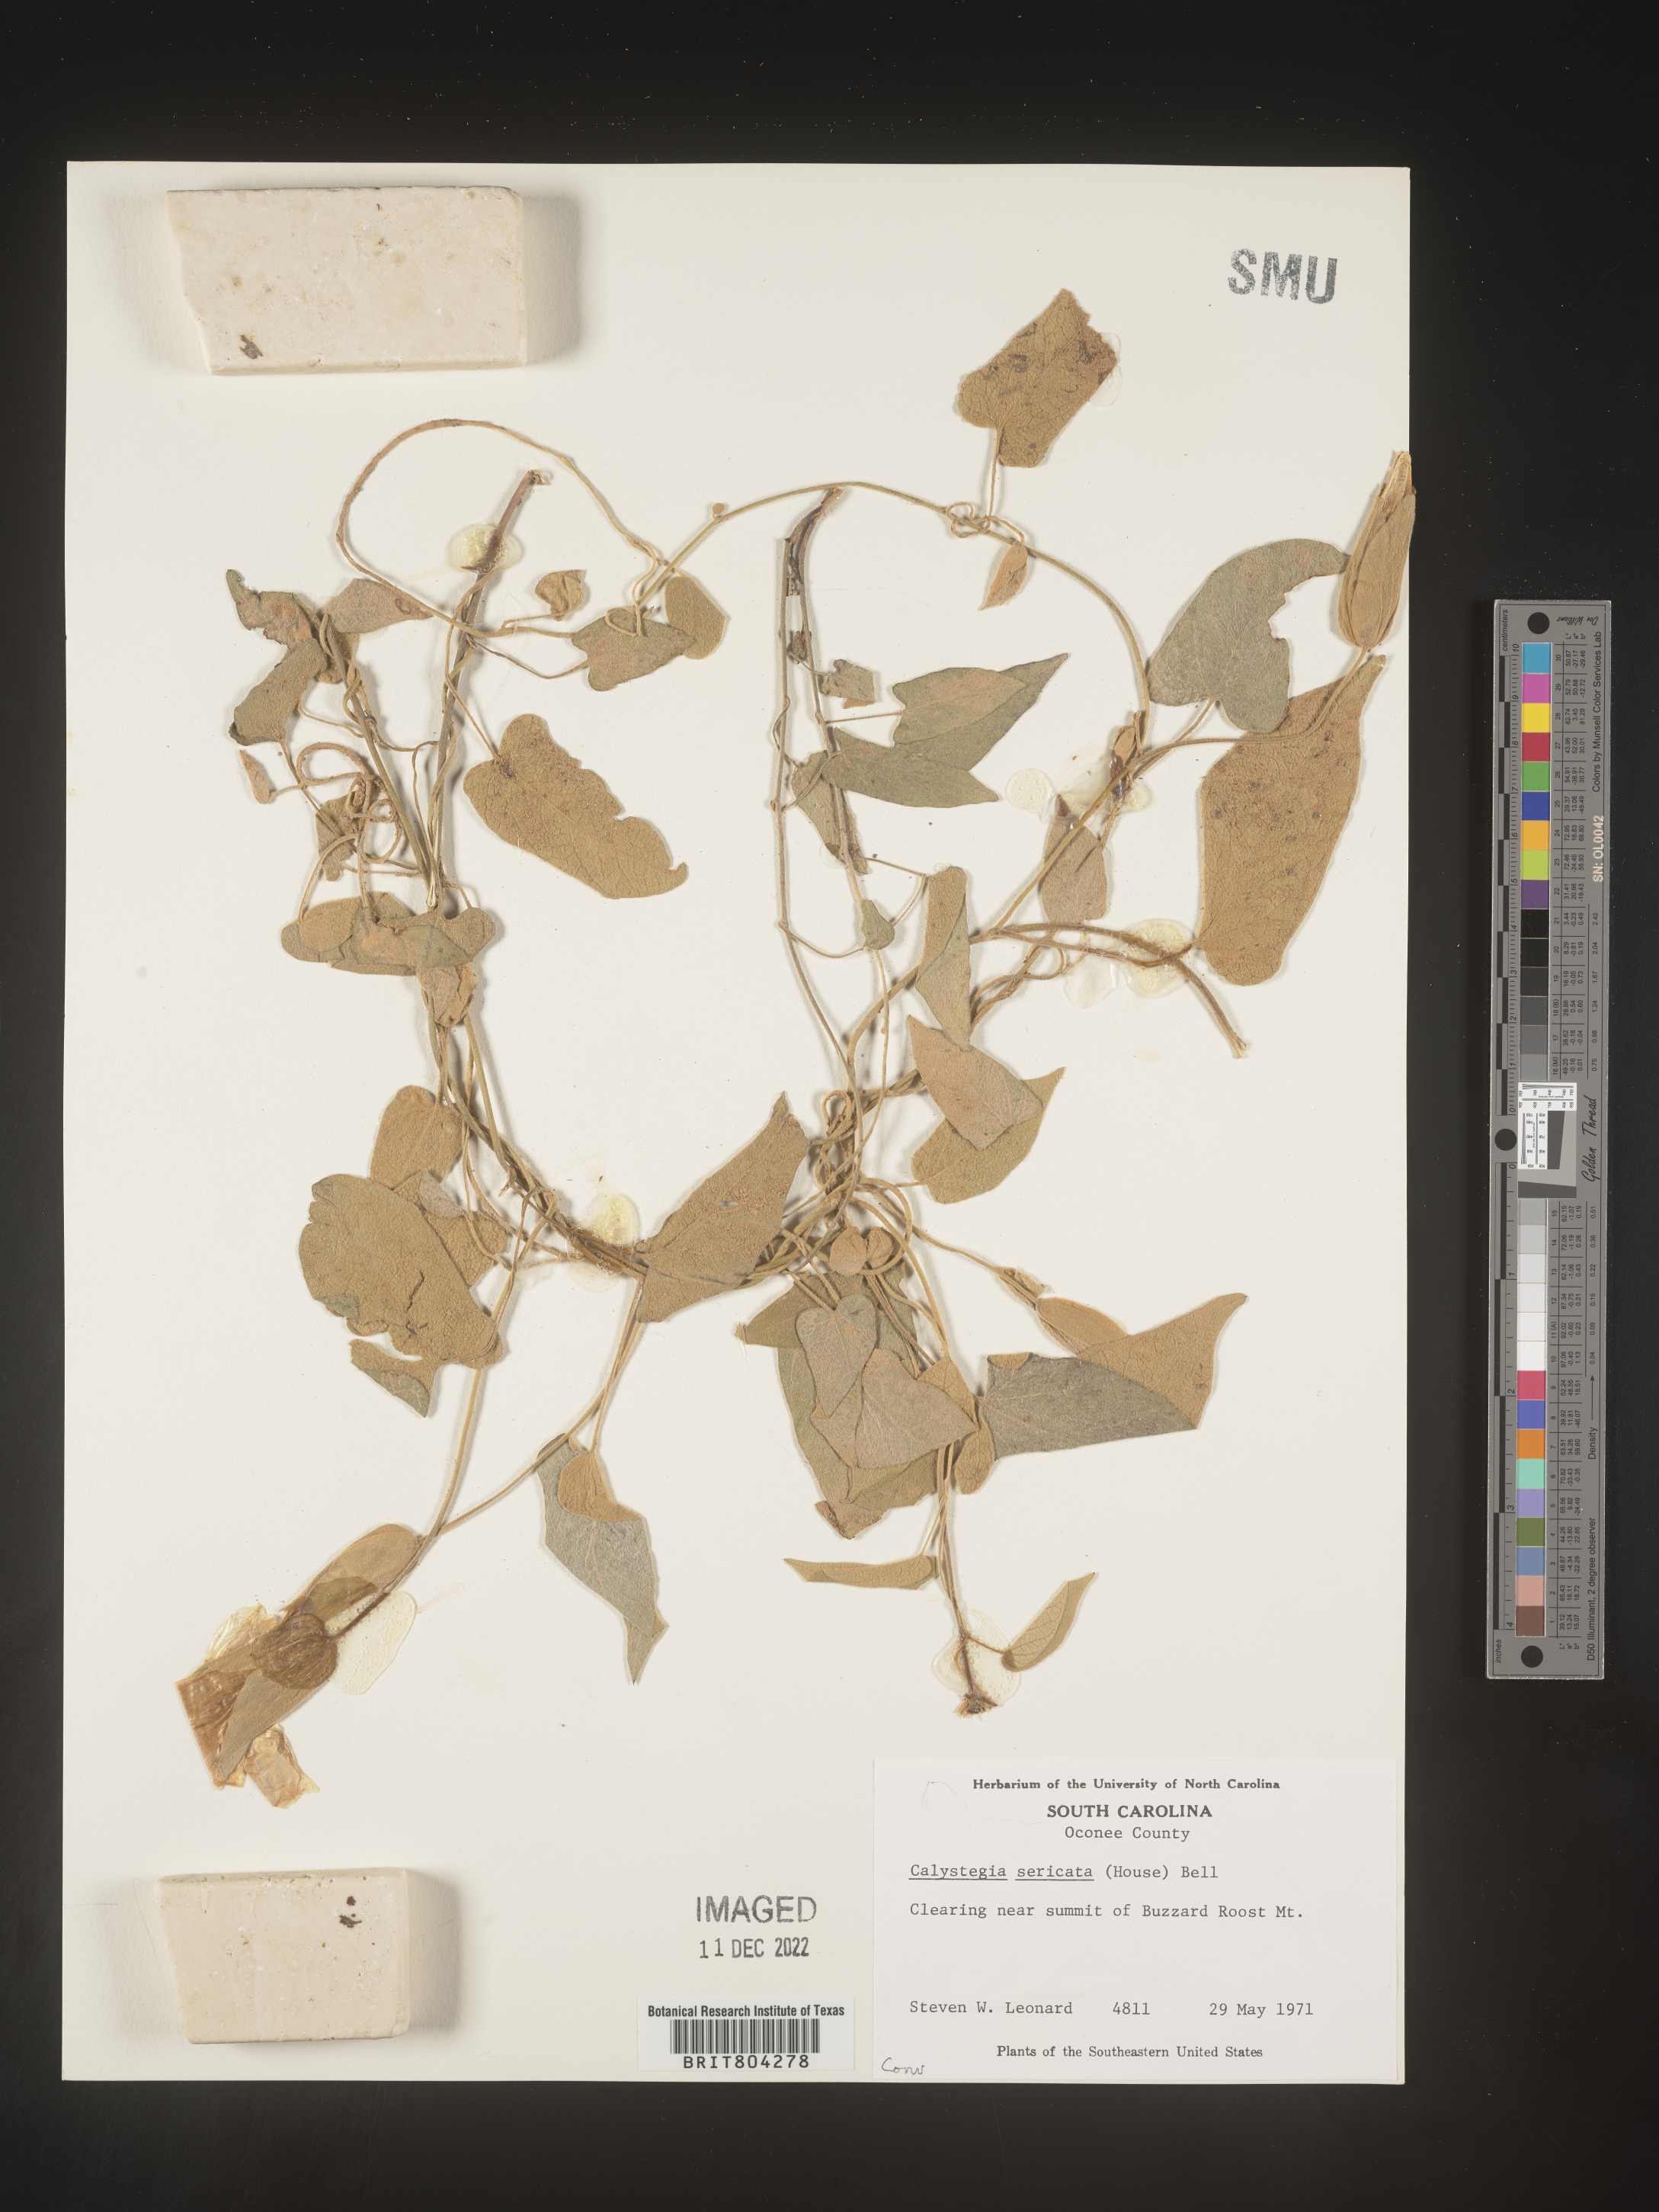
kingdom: Plantae
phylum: Tracheophyta
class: Magnoliopsida
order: Solanales
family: Convolvulaceae
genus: Calystegia
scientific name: Calystegia
